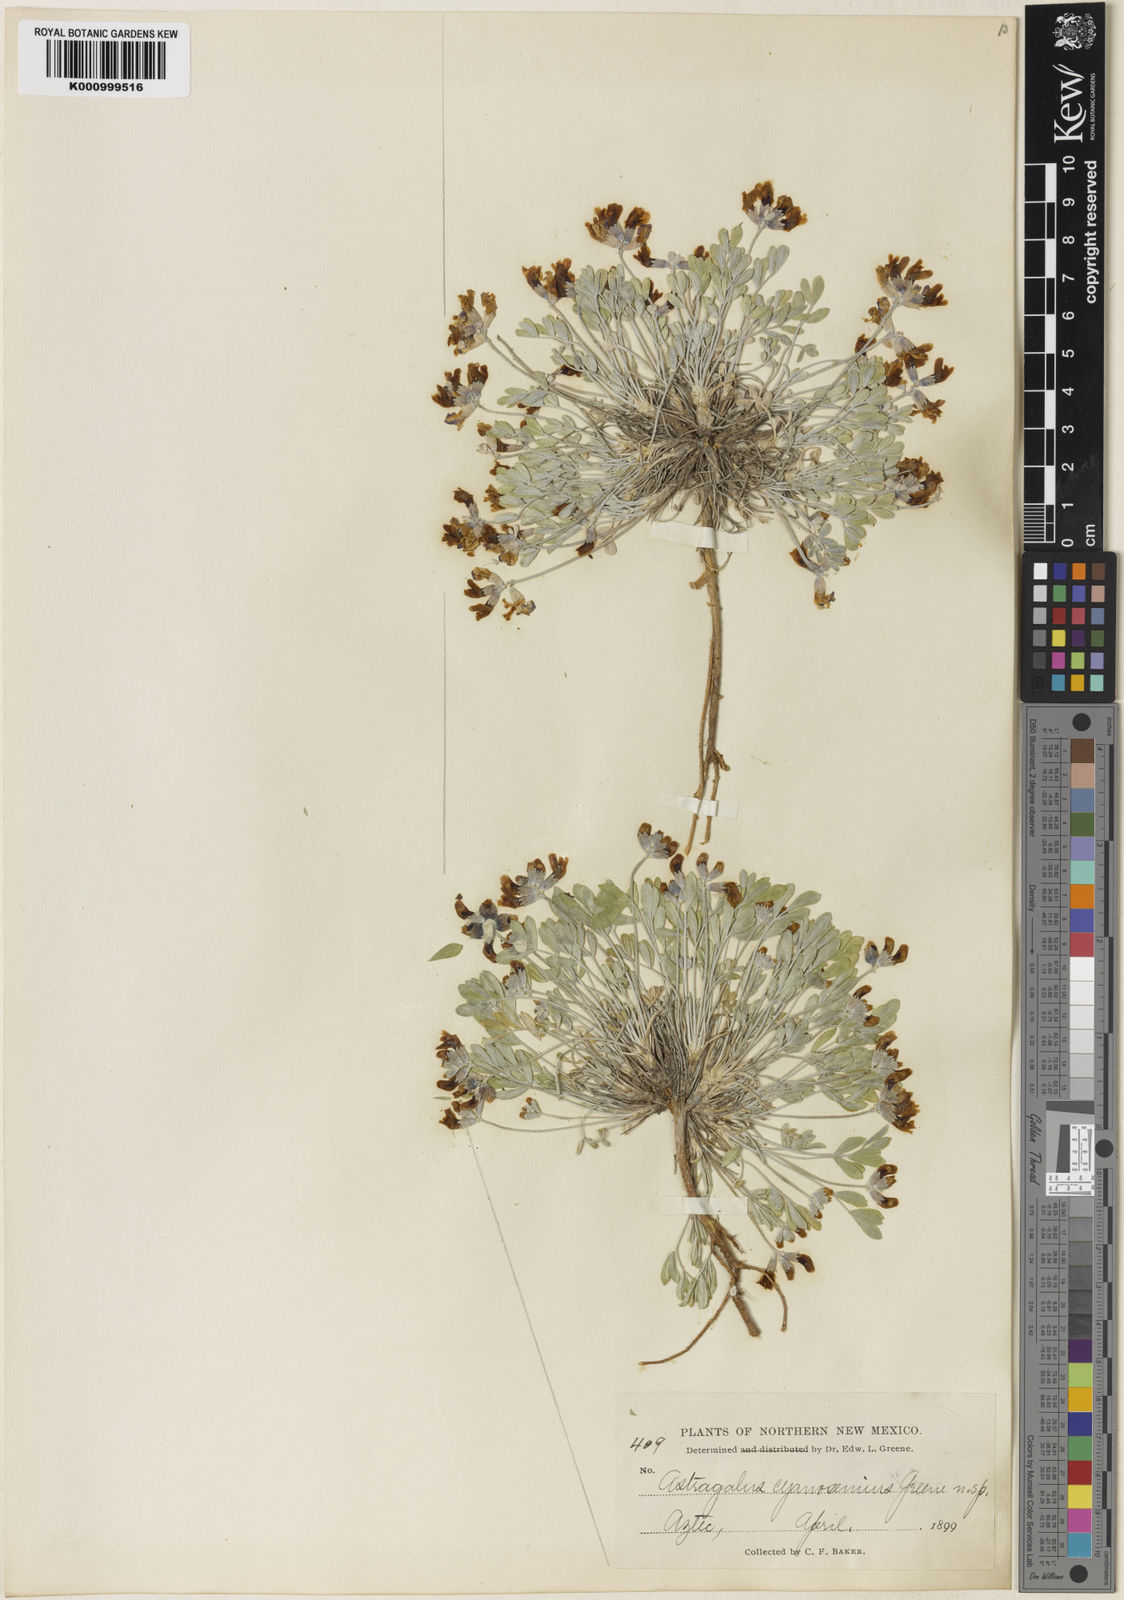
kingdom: Plantae
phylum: Tracheophyta
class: Magnoliopsida
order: Fabales
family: Fabaceae
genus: Astragalus
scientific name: Astragalus
